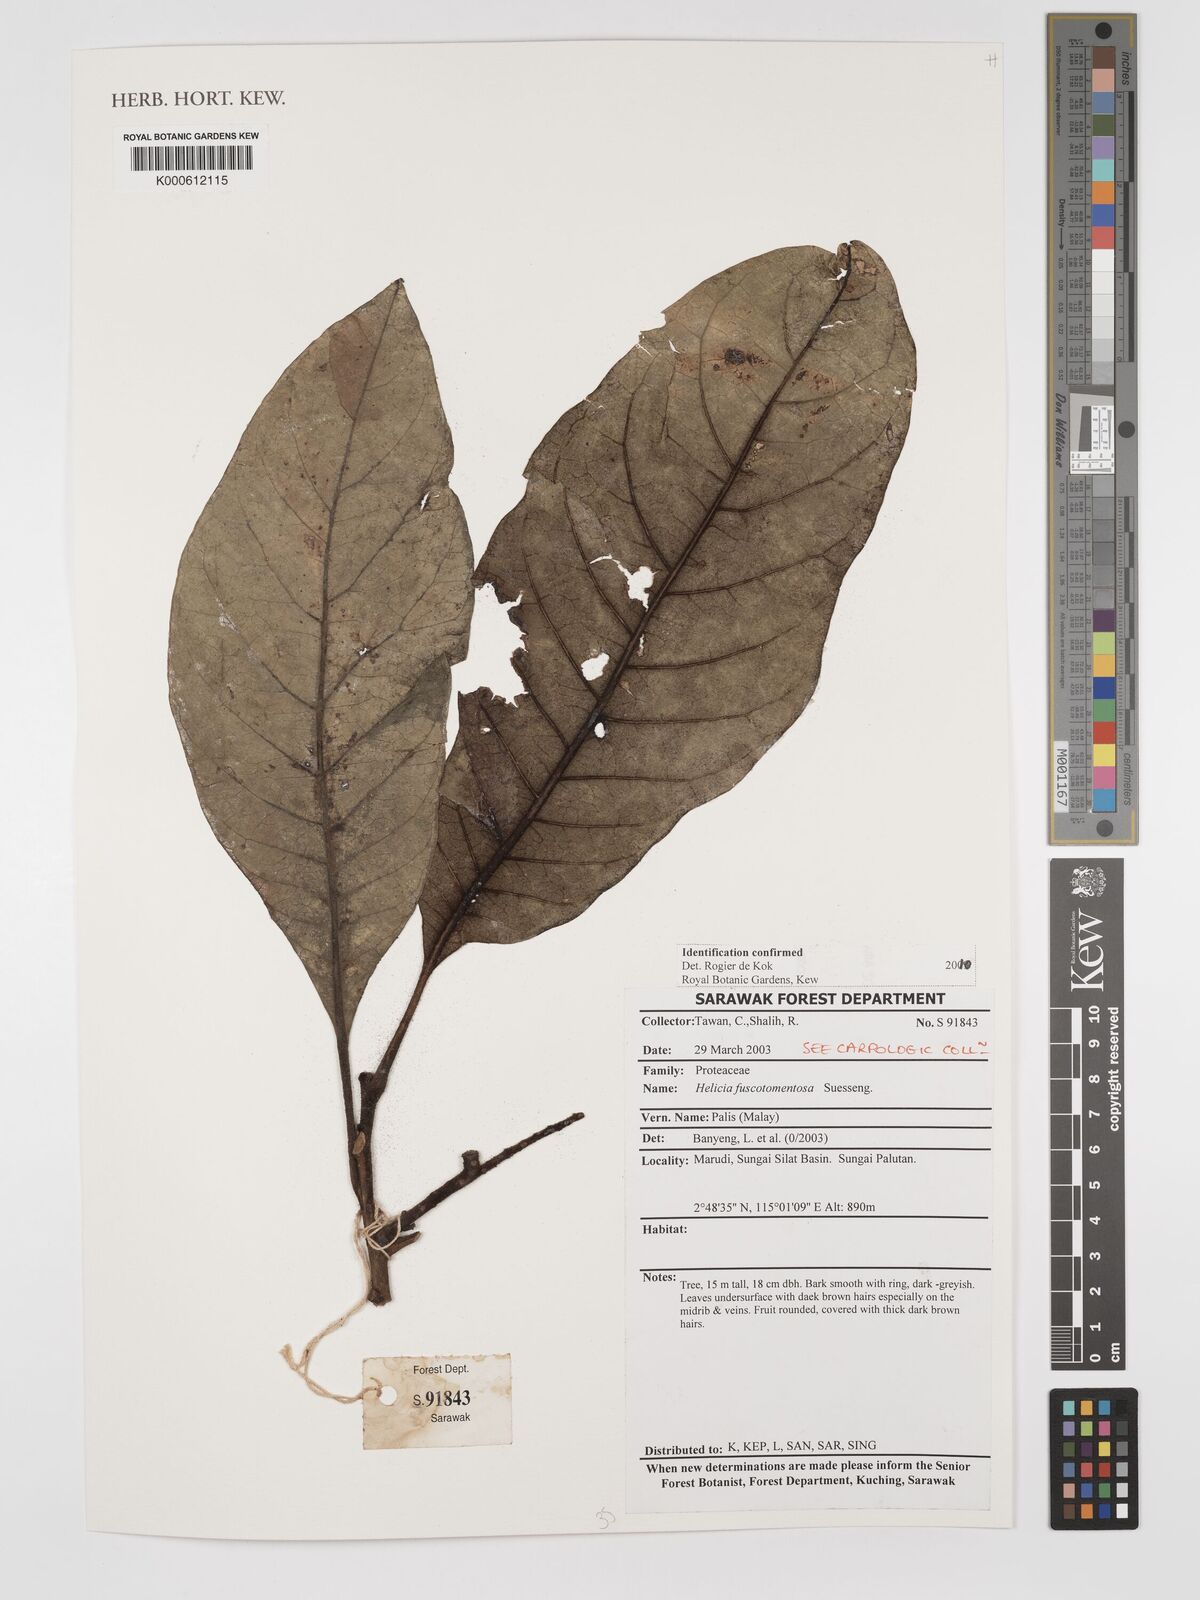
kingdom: Plantae
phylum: Tracheophyta
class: Magnoliopsida
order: Proteales
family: Proteaceae
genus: Helicia
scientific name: Helicia fuscotomentosa
